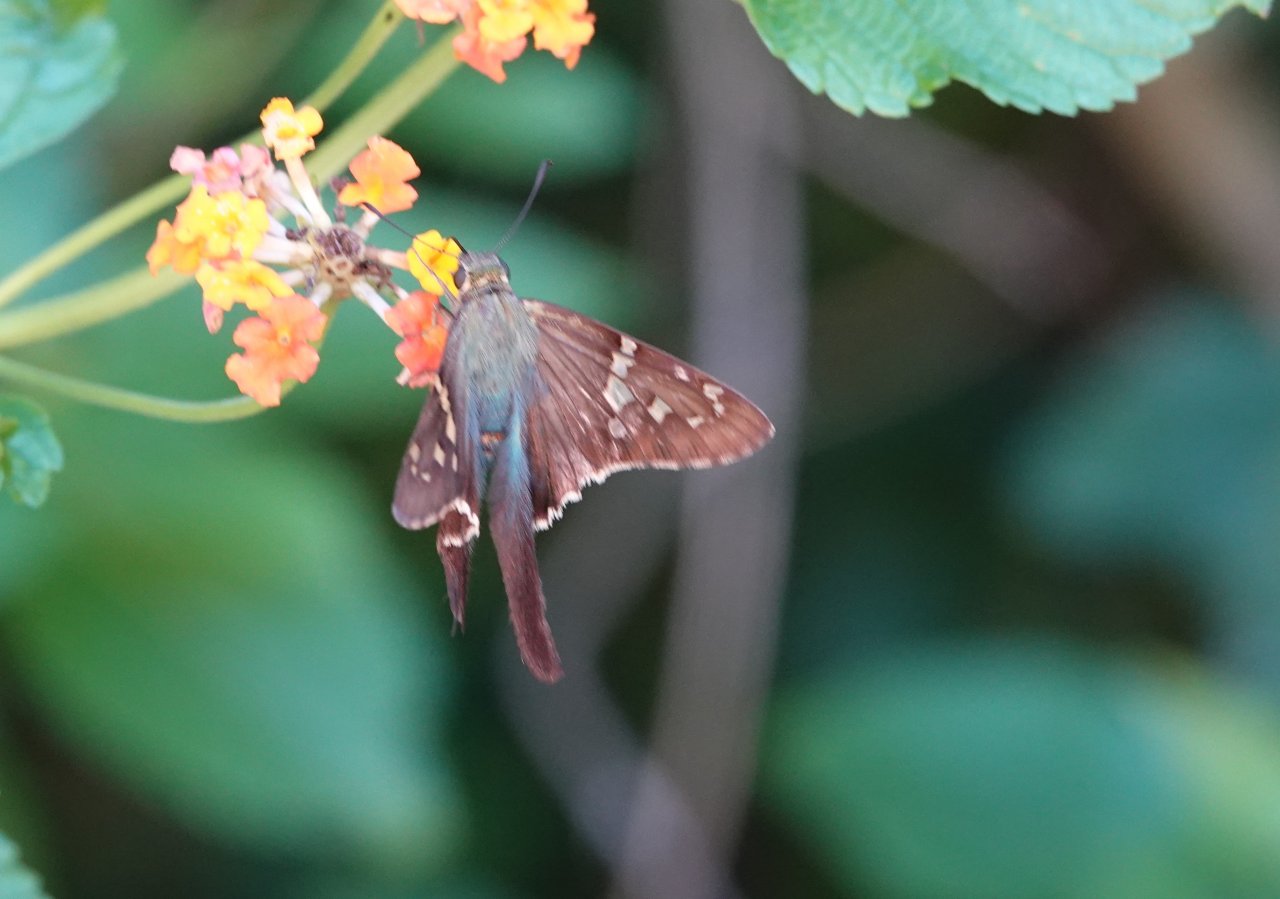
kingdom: Animalia
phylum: Arthropoda
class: Insecta
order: Lepidoptera
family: Hesperiidae
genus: Urbanus
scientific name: Urbanus proteus
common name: Long-tailed Skipper
